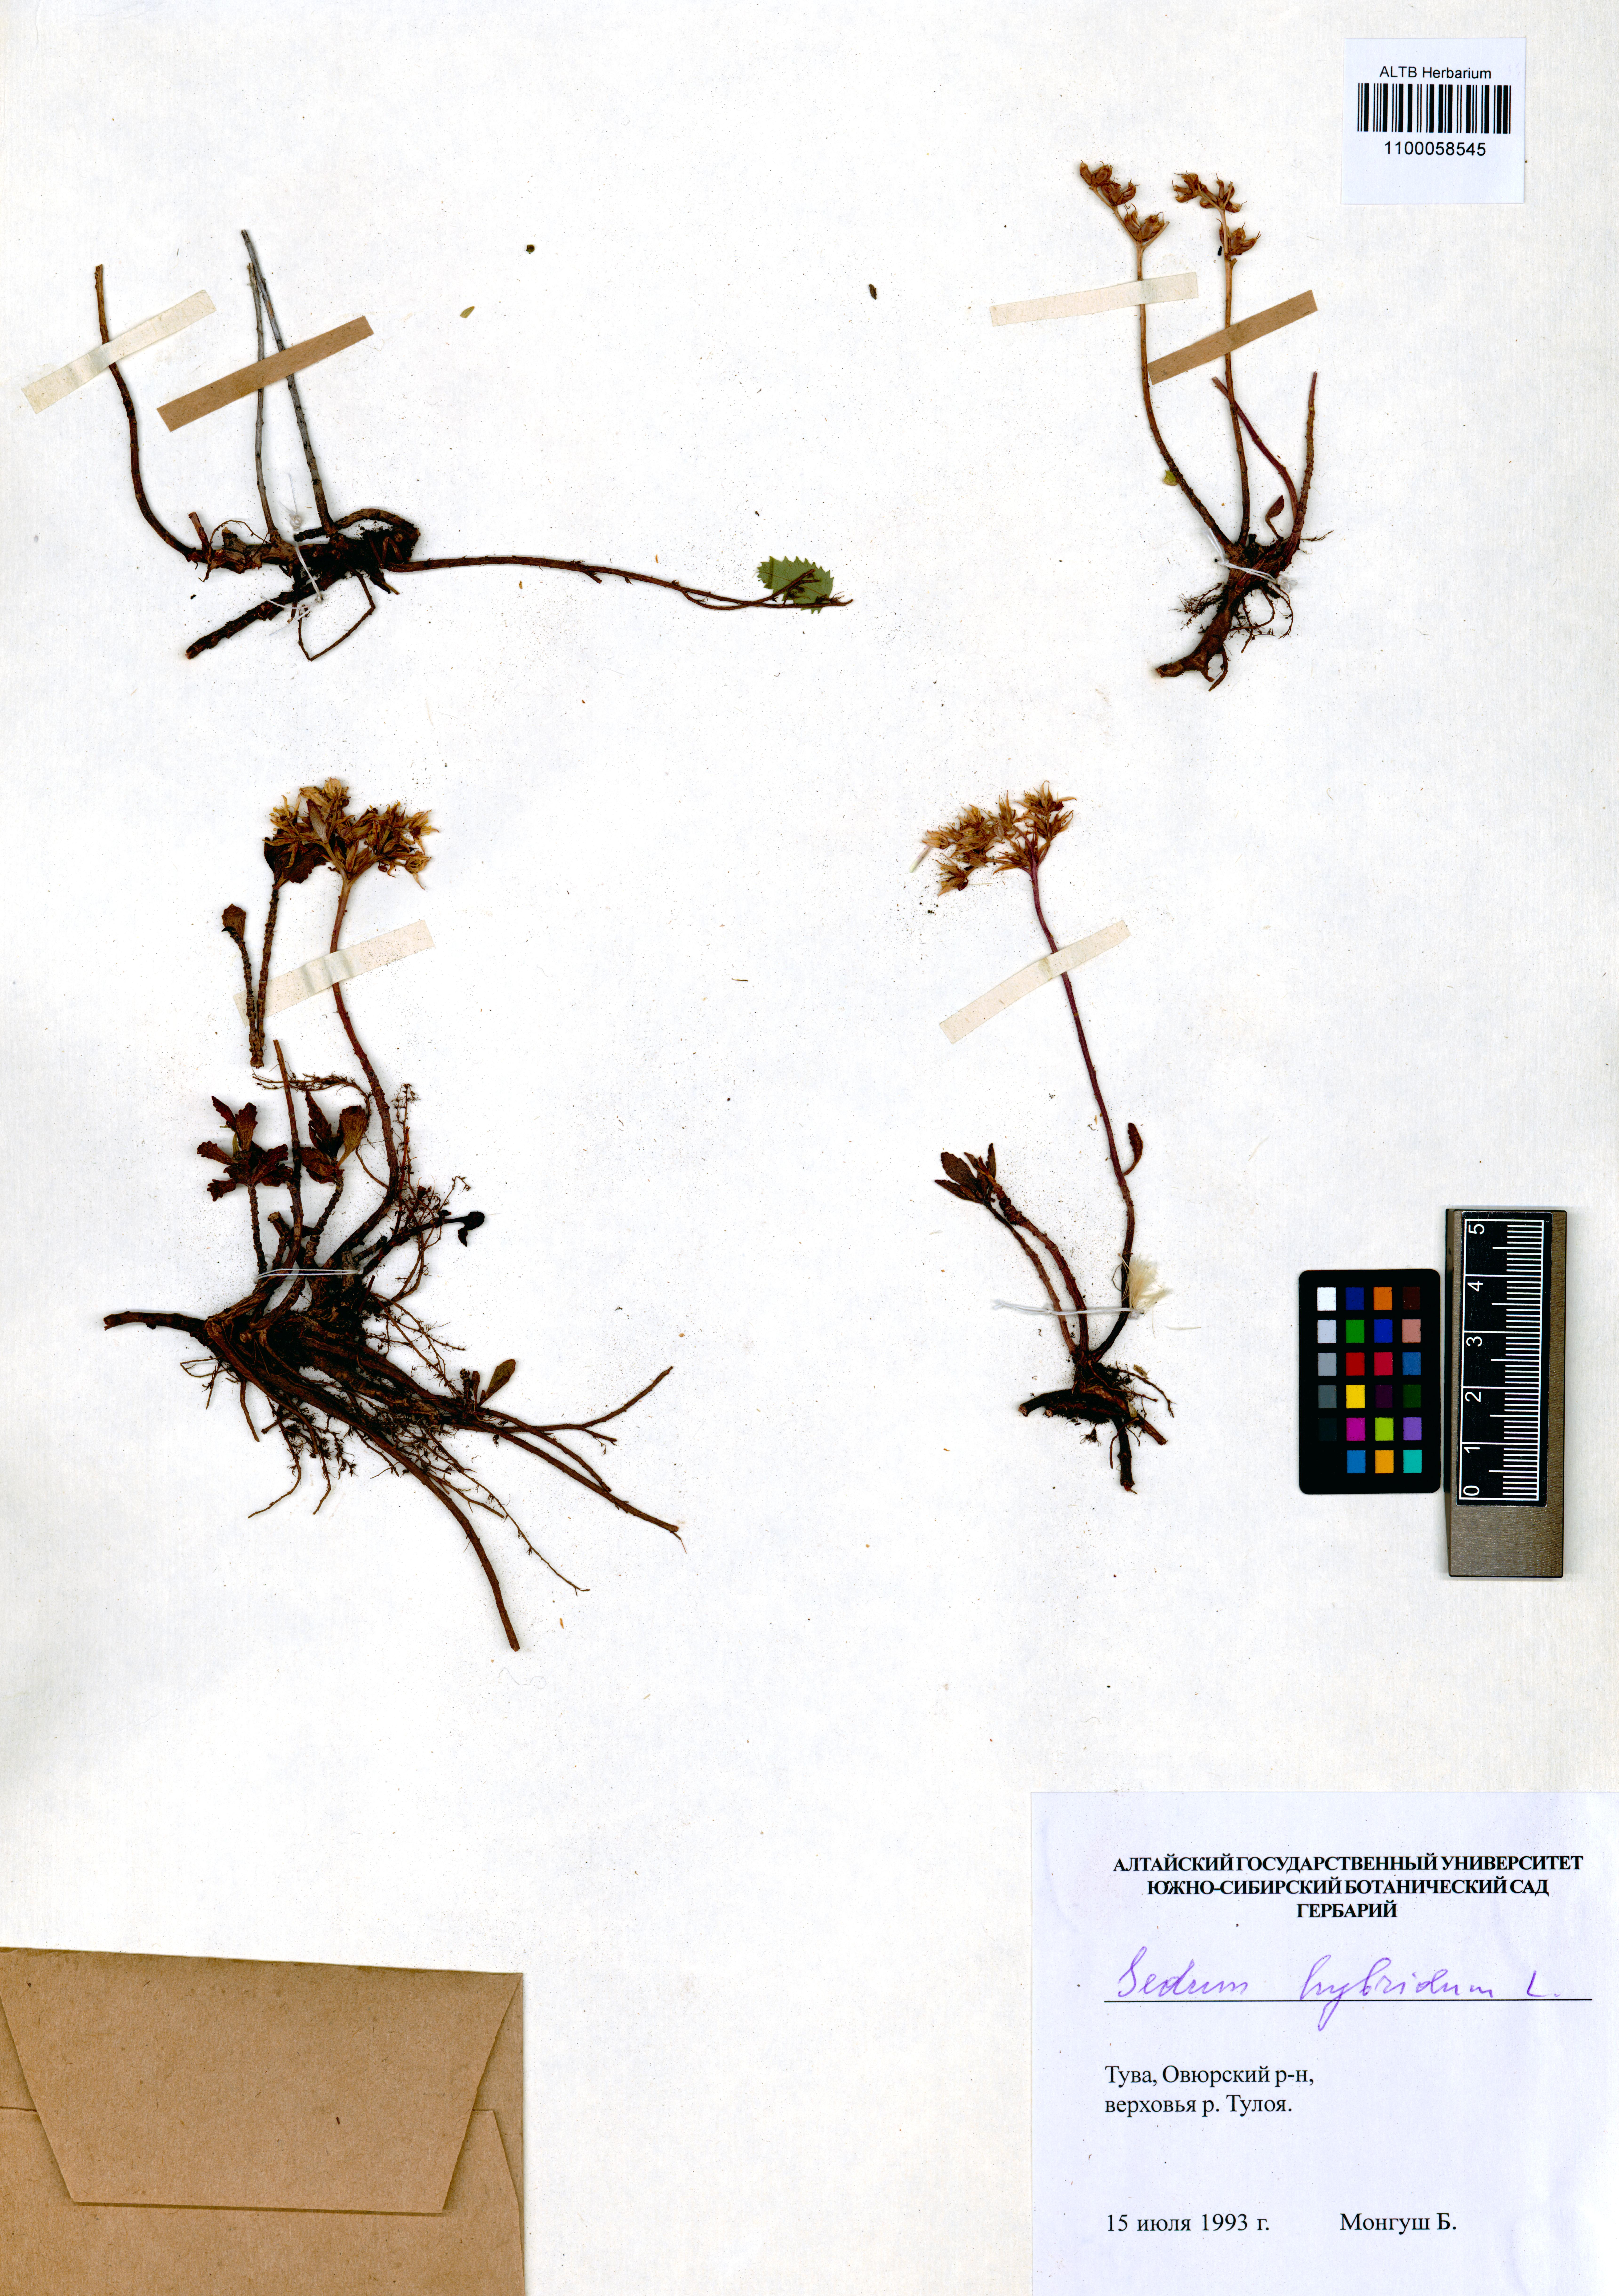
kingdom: Plantae
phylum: Tracheophyta
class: Magnoliopsida
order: Saxifragales
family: Crassulaceae
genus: Phedimus
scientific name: Phedimus hybridus
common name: Hybrid stonecrop
